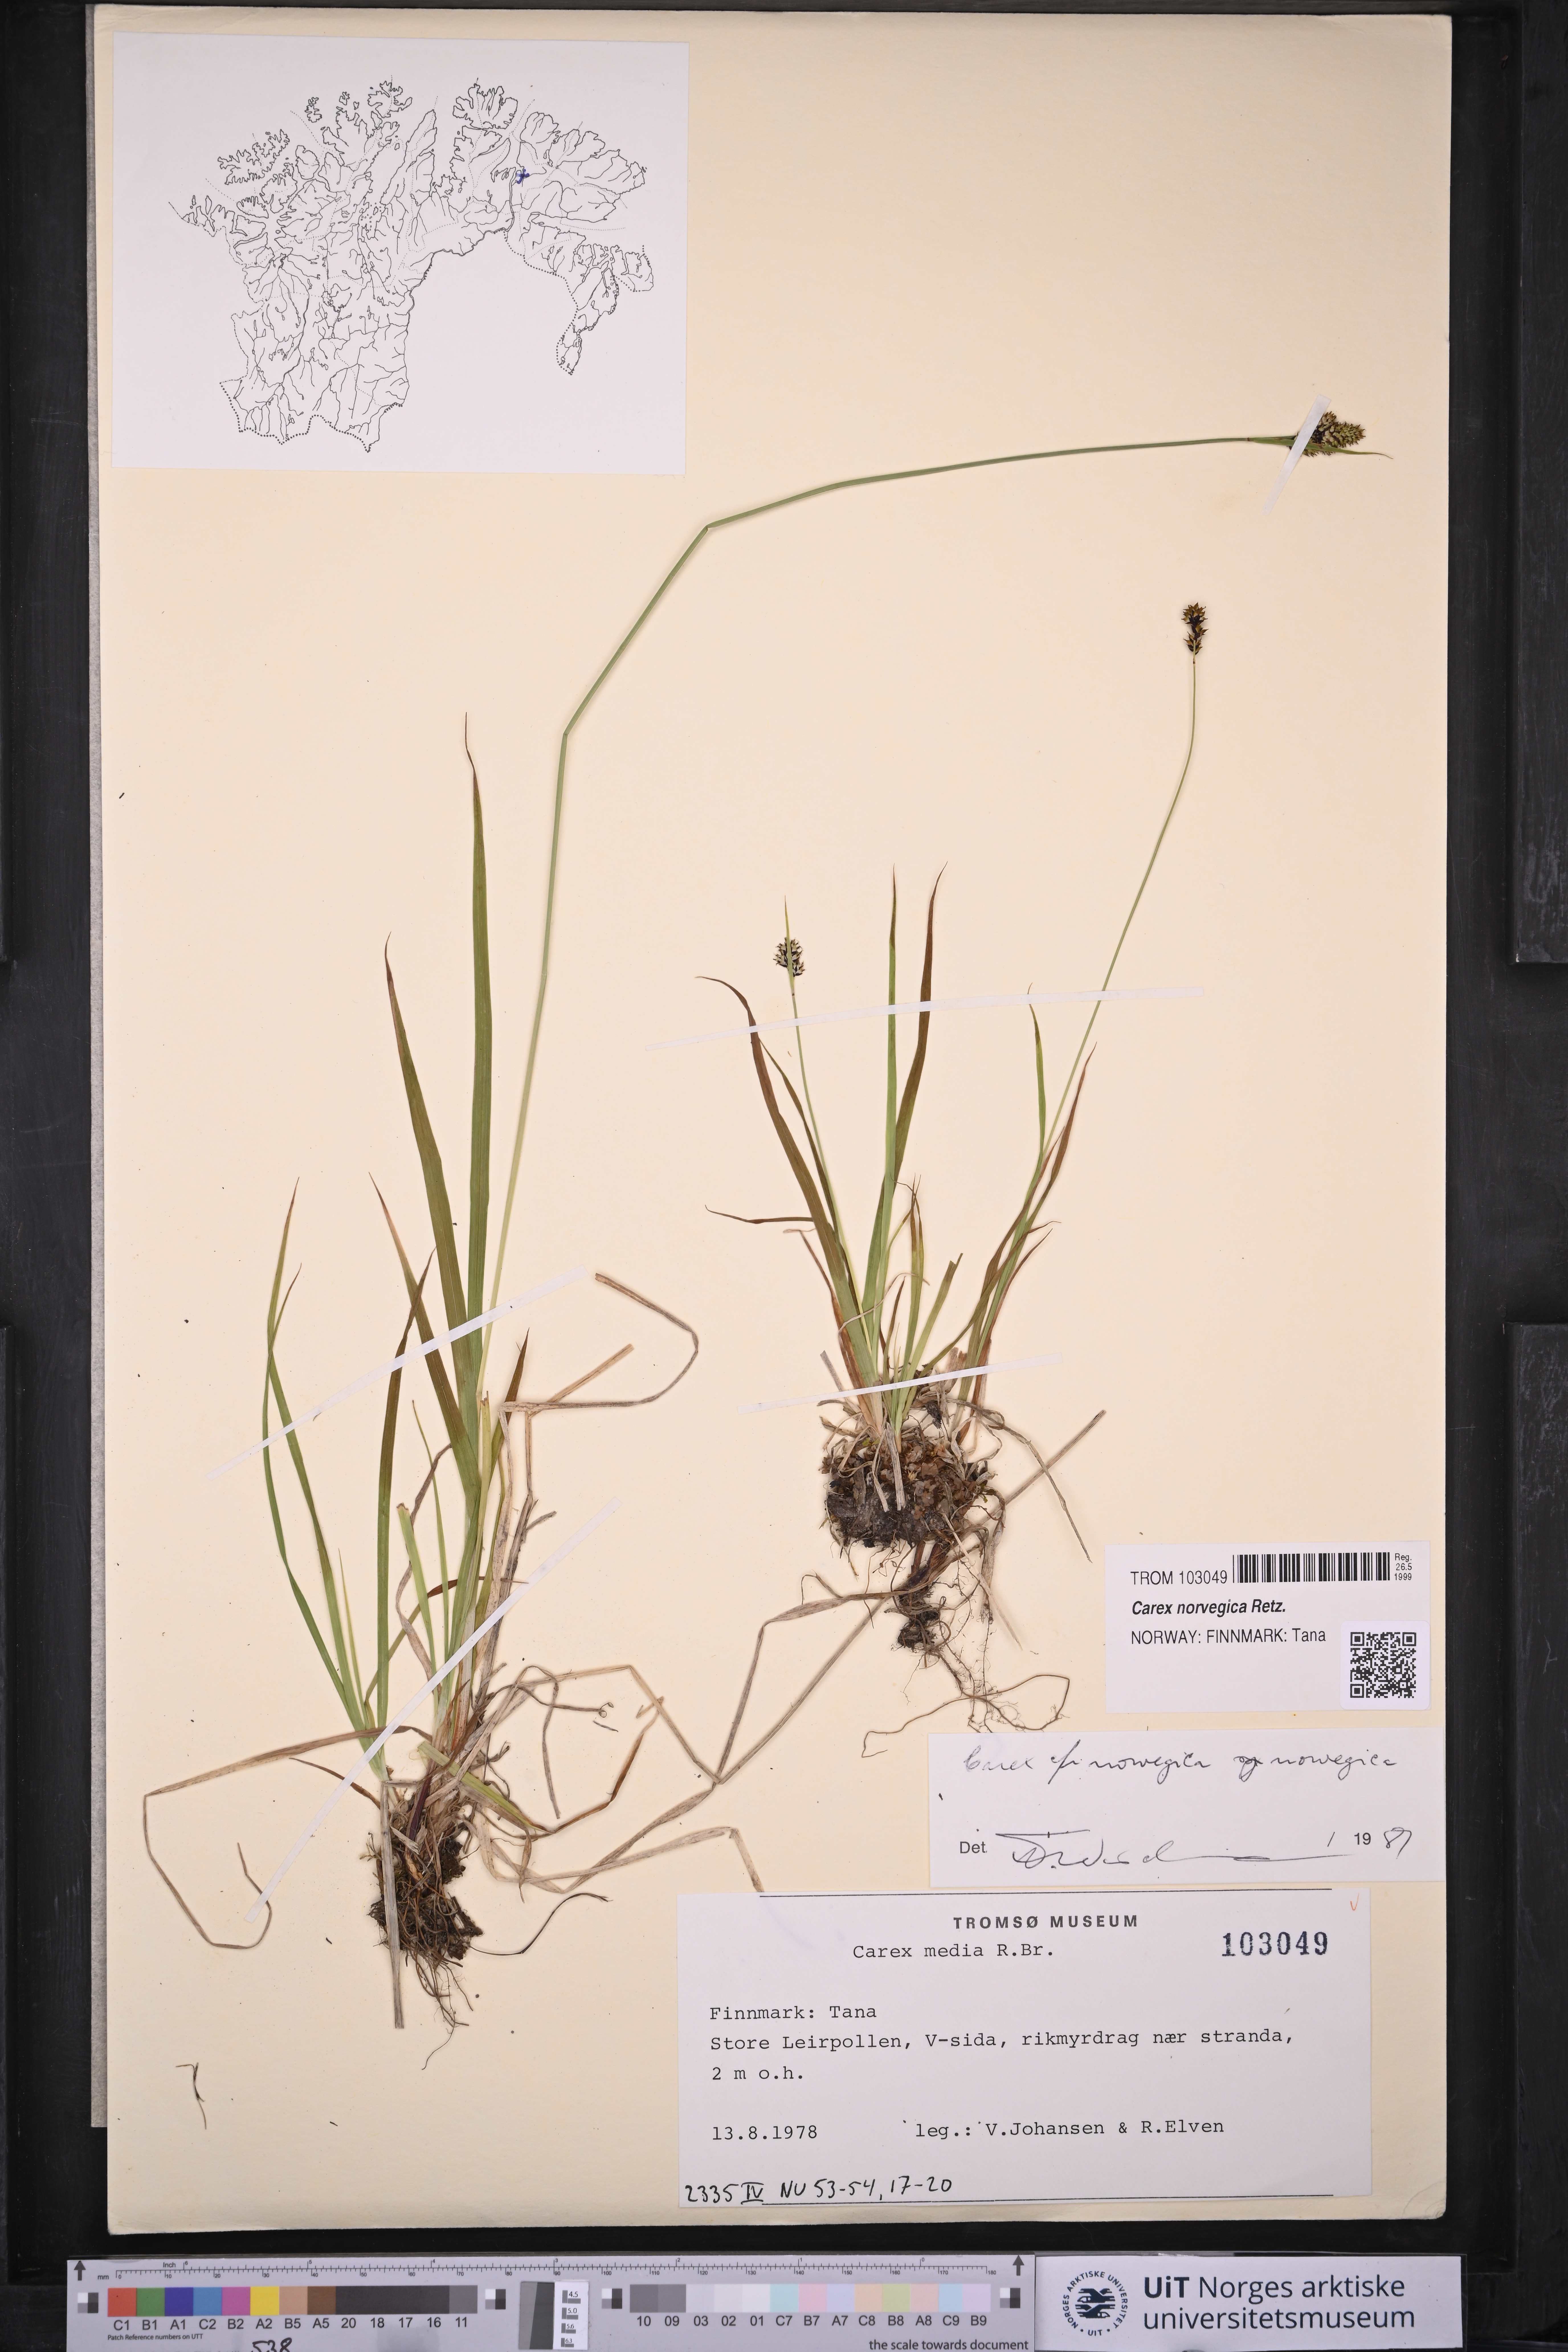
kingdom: Plantae
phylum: Tracheophyta
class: Liliopsida
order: Poales
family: Cyperaceae
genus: Carex
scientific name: Carex norvegica
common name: Close-headed alpine-sedge
